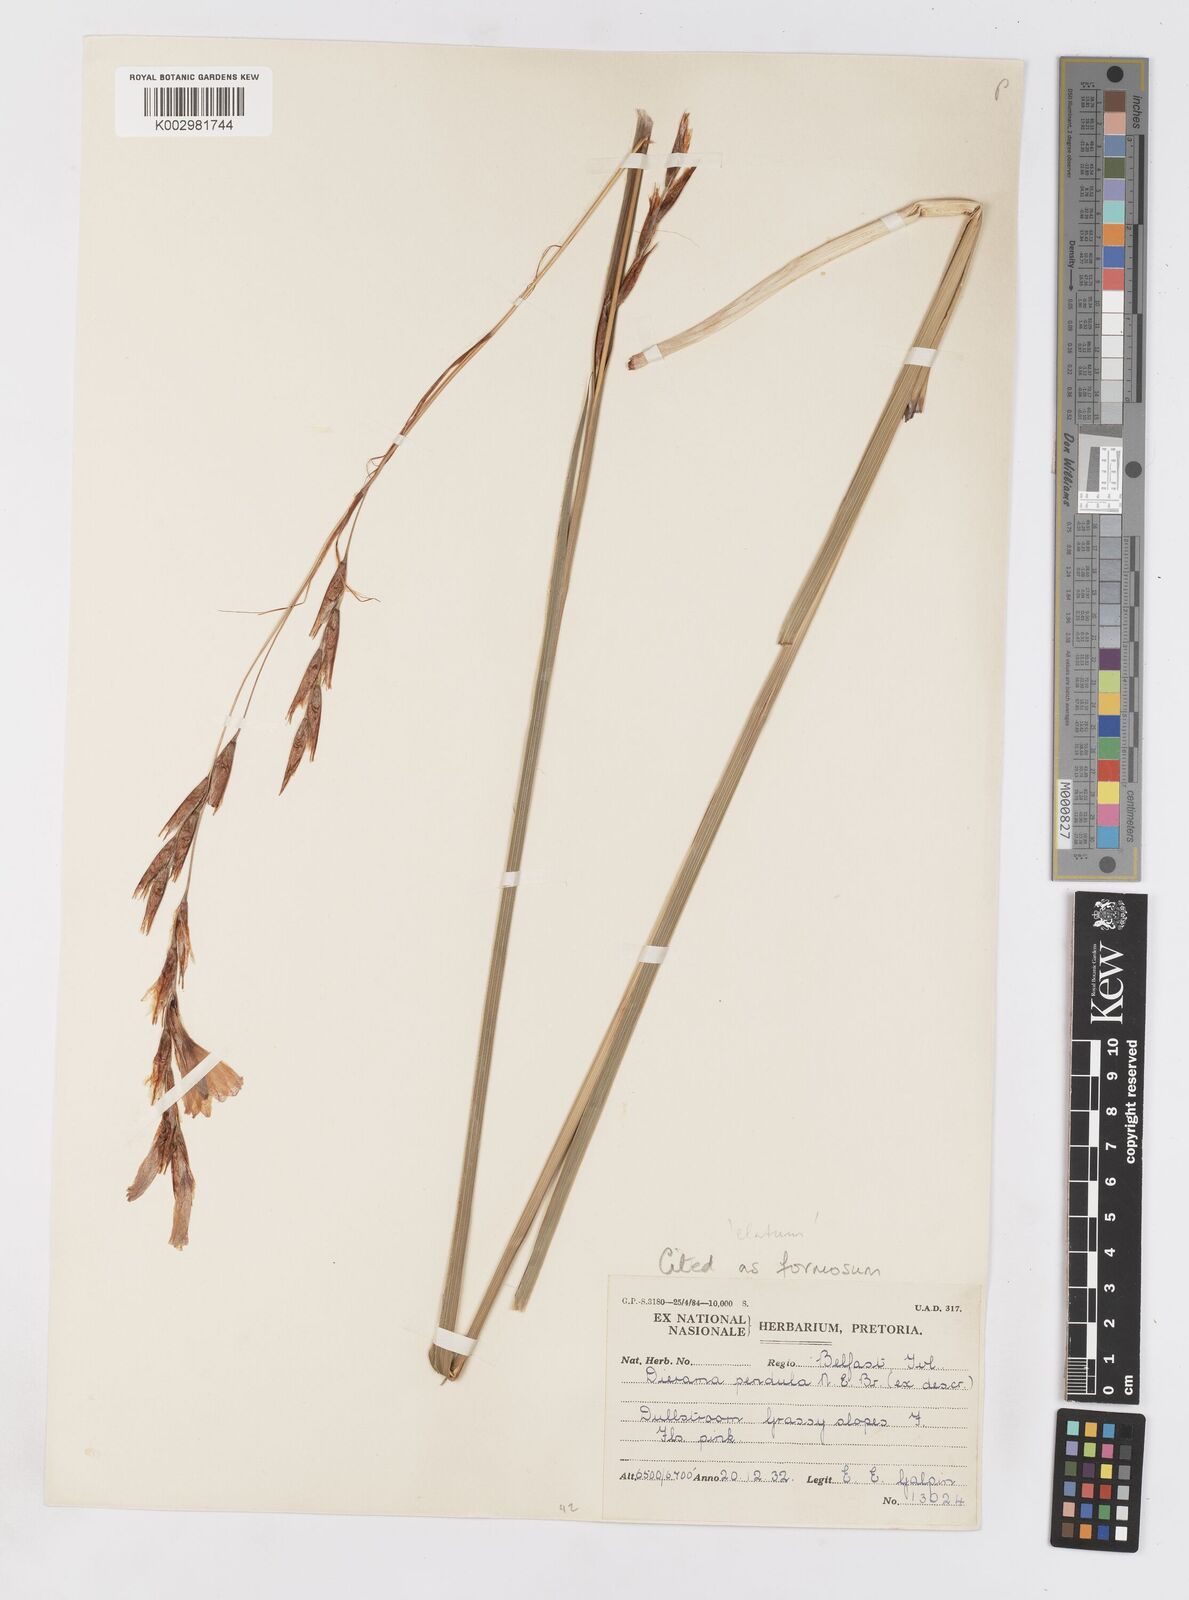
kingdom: Plantae
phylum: Tracheophyta
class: Liliopsida
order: Asparagales
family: Iridaceae
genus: Dierama
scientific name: Dierama formosum
